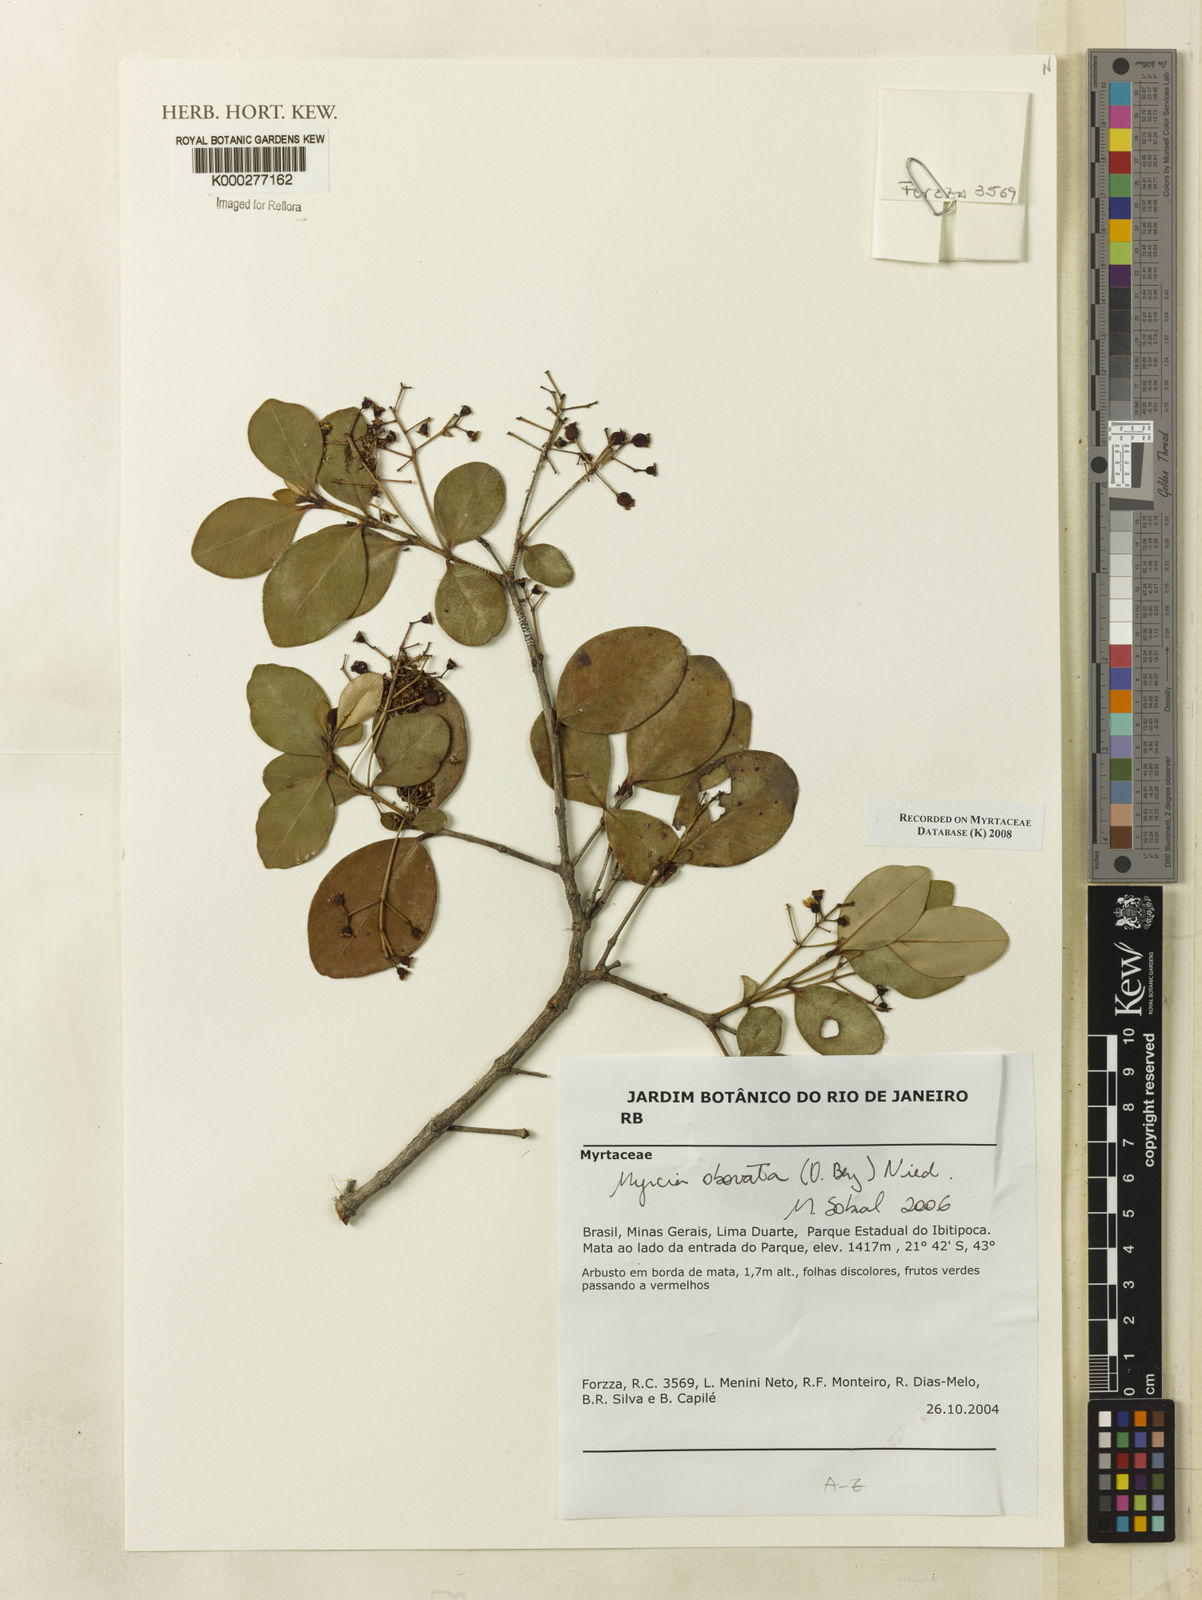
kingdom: Plantae
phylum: Tracheophyta
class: Magnoliopsida
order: Myrtales
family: Myrtaceae
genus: Myrcia
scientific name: Myrcia obovata
